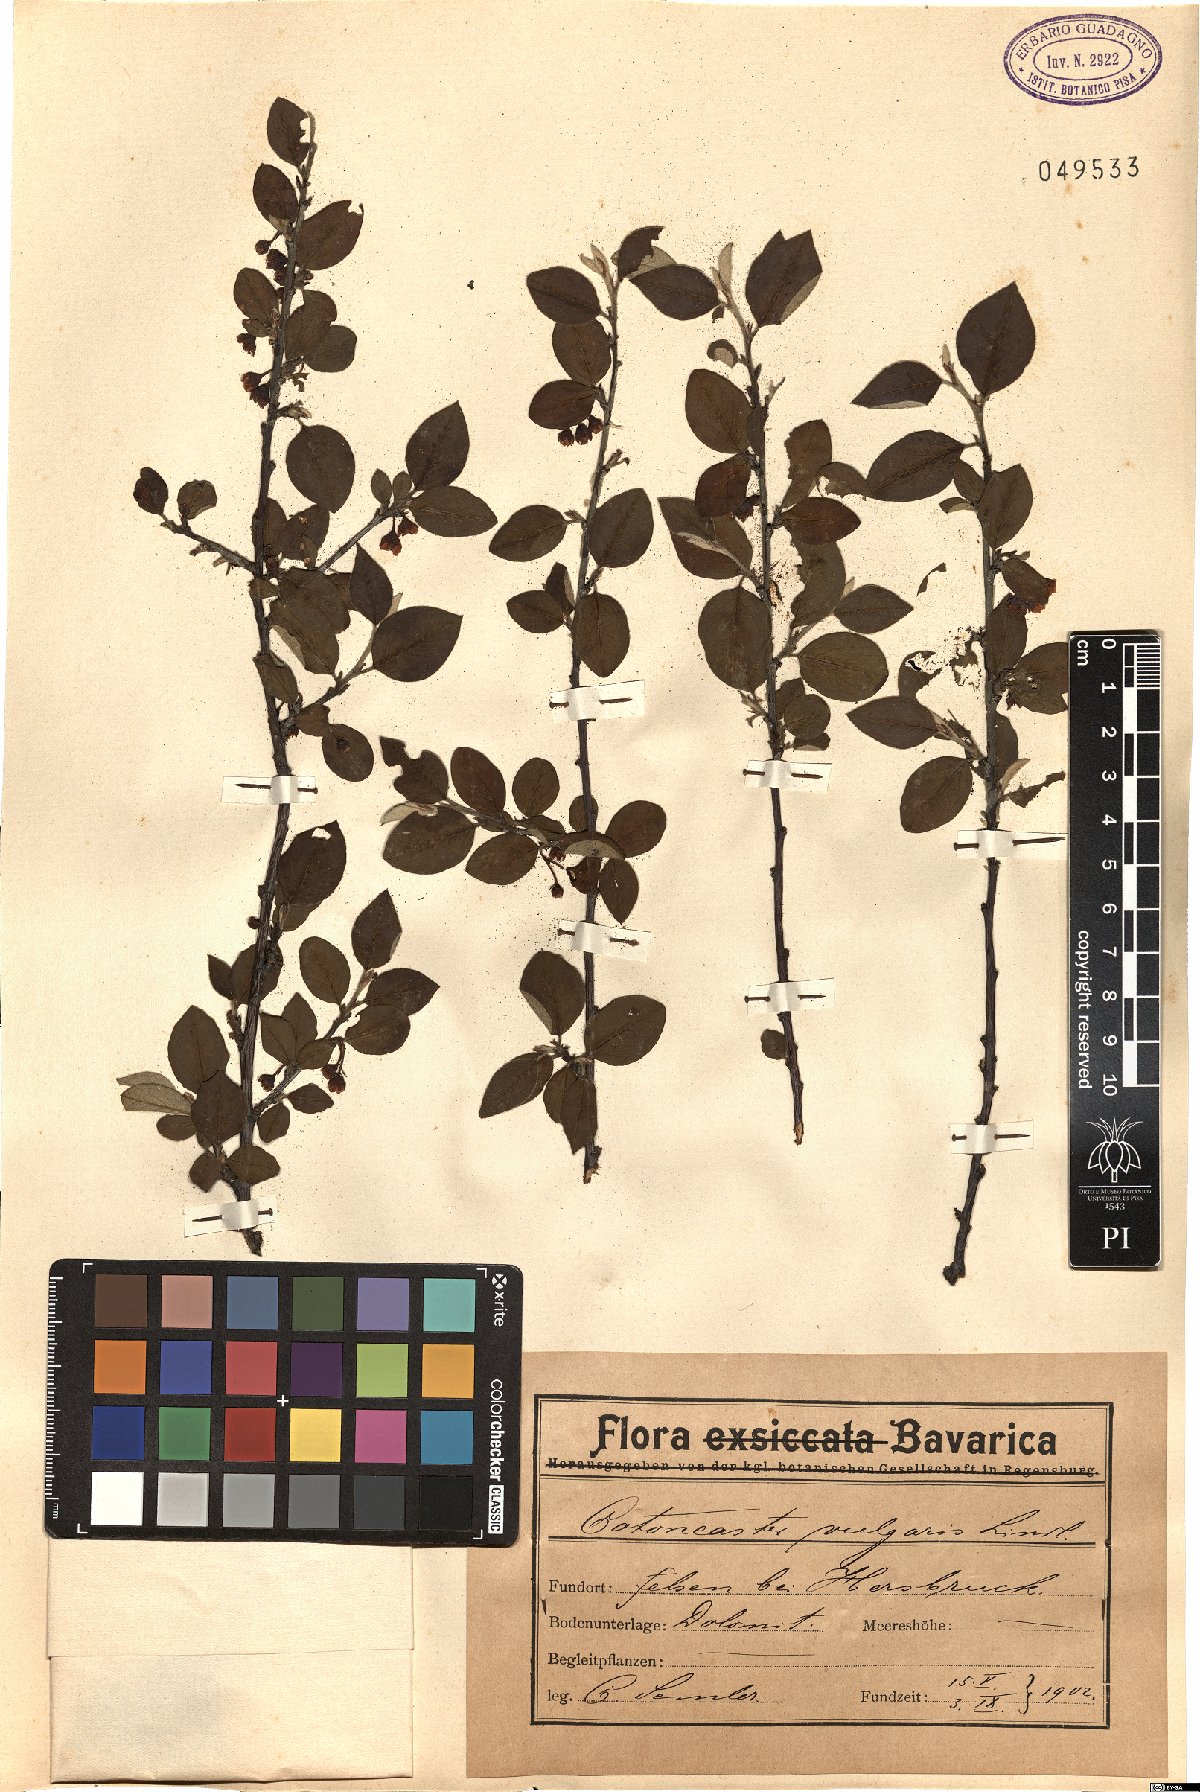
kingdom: Plantae
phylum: Tracheophyta
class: Magnoliopsida
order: Rosales
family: Rosaceae
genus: Cotoneaster
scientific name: Cotoneaster integerrimus
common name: Wild cotoneaster
